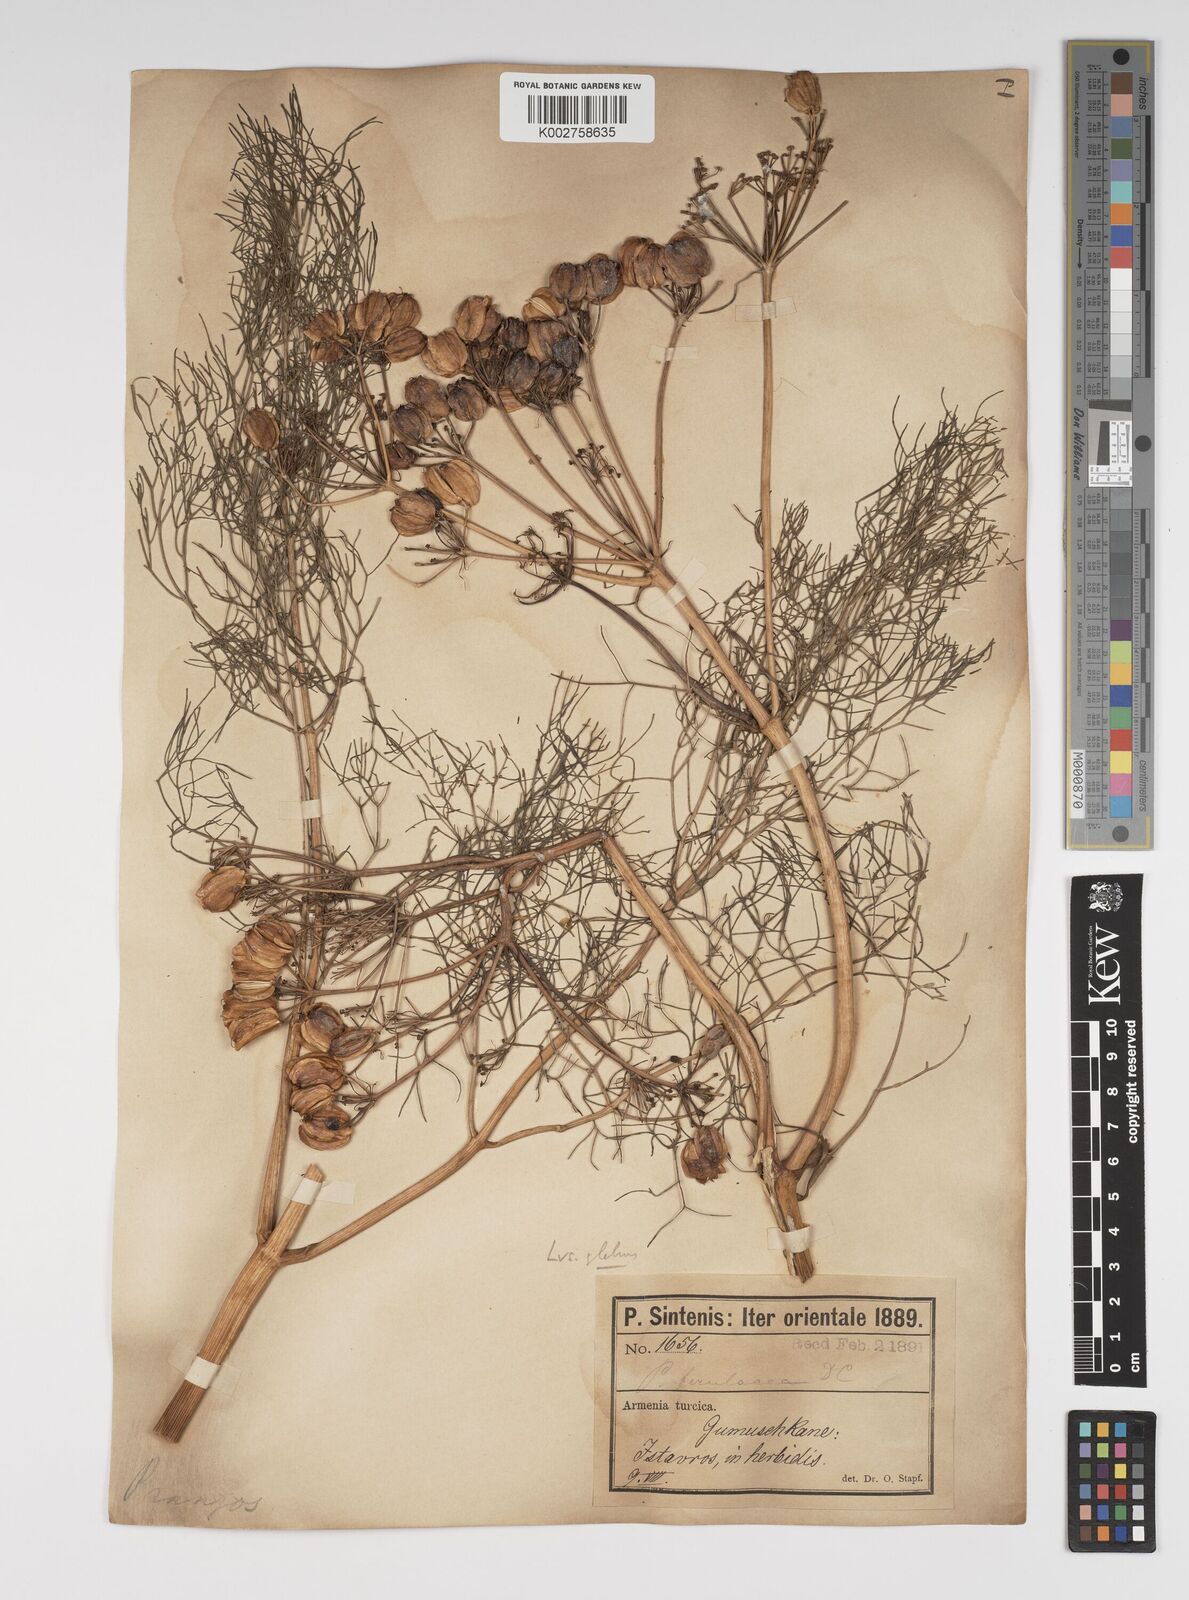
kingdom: Plantae
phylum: Tracheophyta
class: Magnoliopsida
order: Apiales
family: Apiaceae
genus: Prangos
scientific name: Prangos ferulacea
